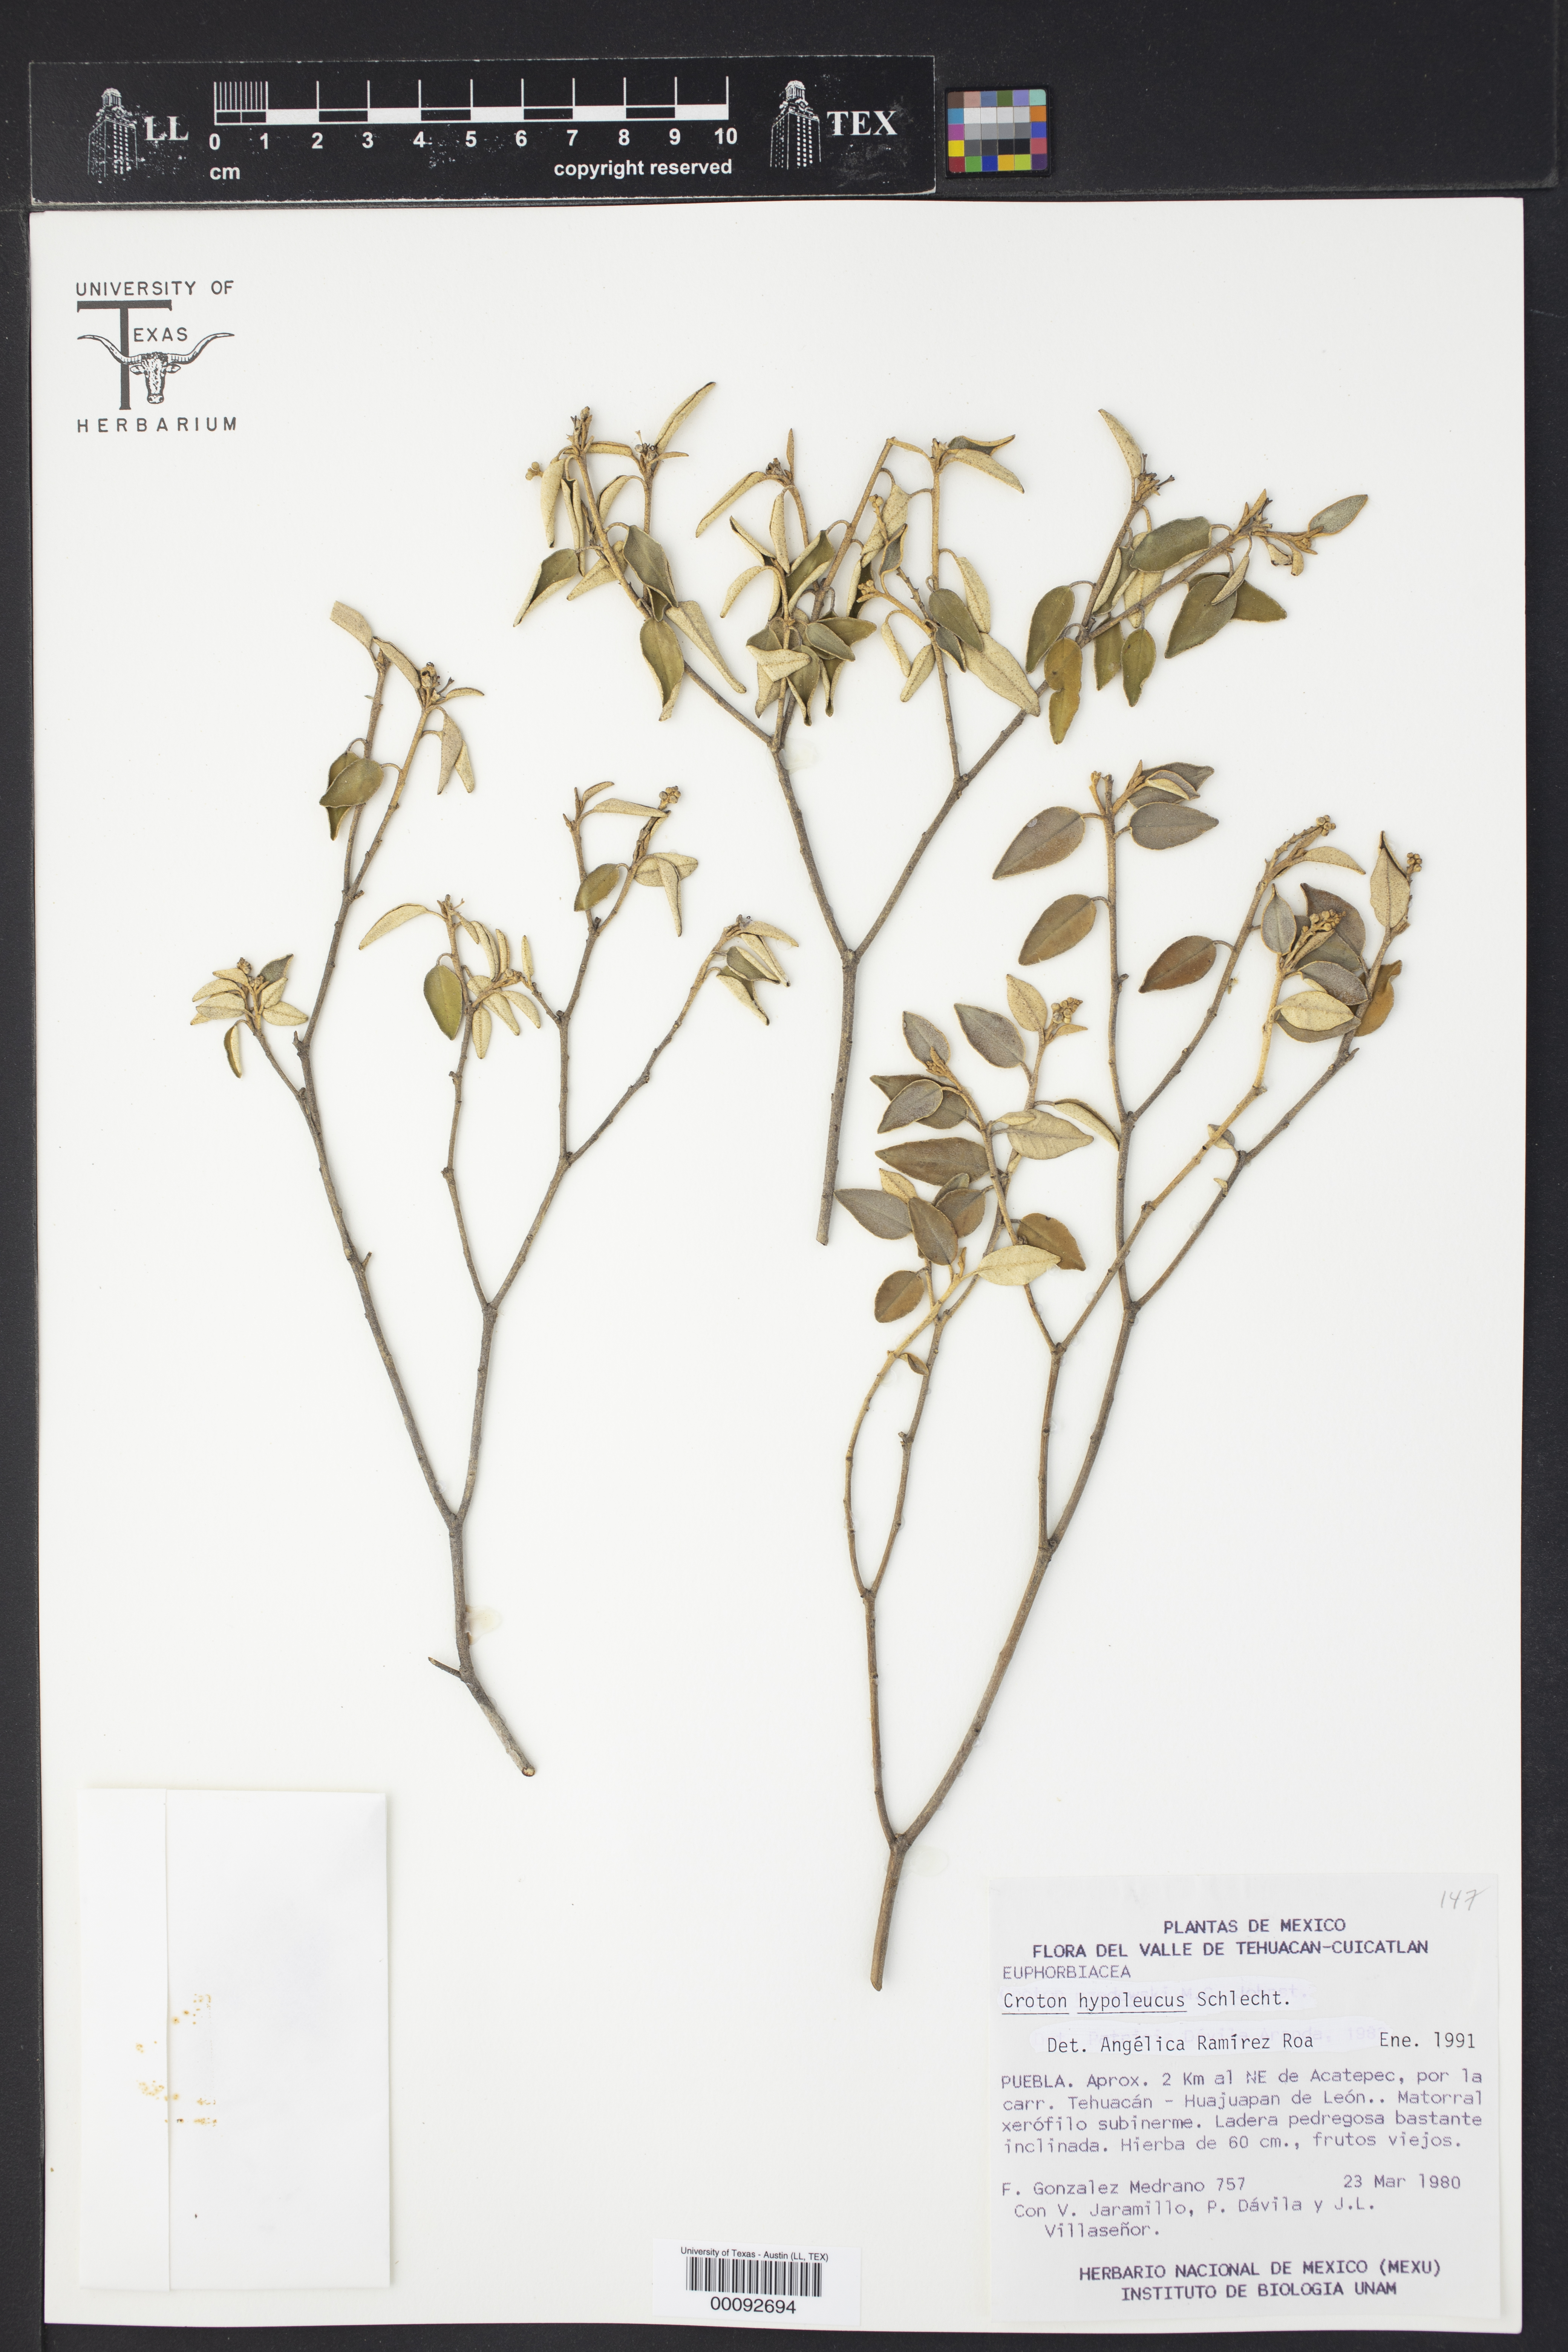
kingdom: Plantae
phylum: Tracheophyta
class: Magnoliopsida
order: Malpighiales
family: Euphorbiaceae
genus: Croton
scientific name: Croton hypoleucus
